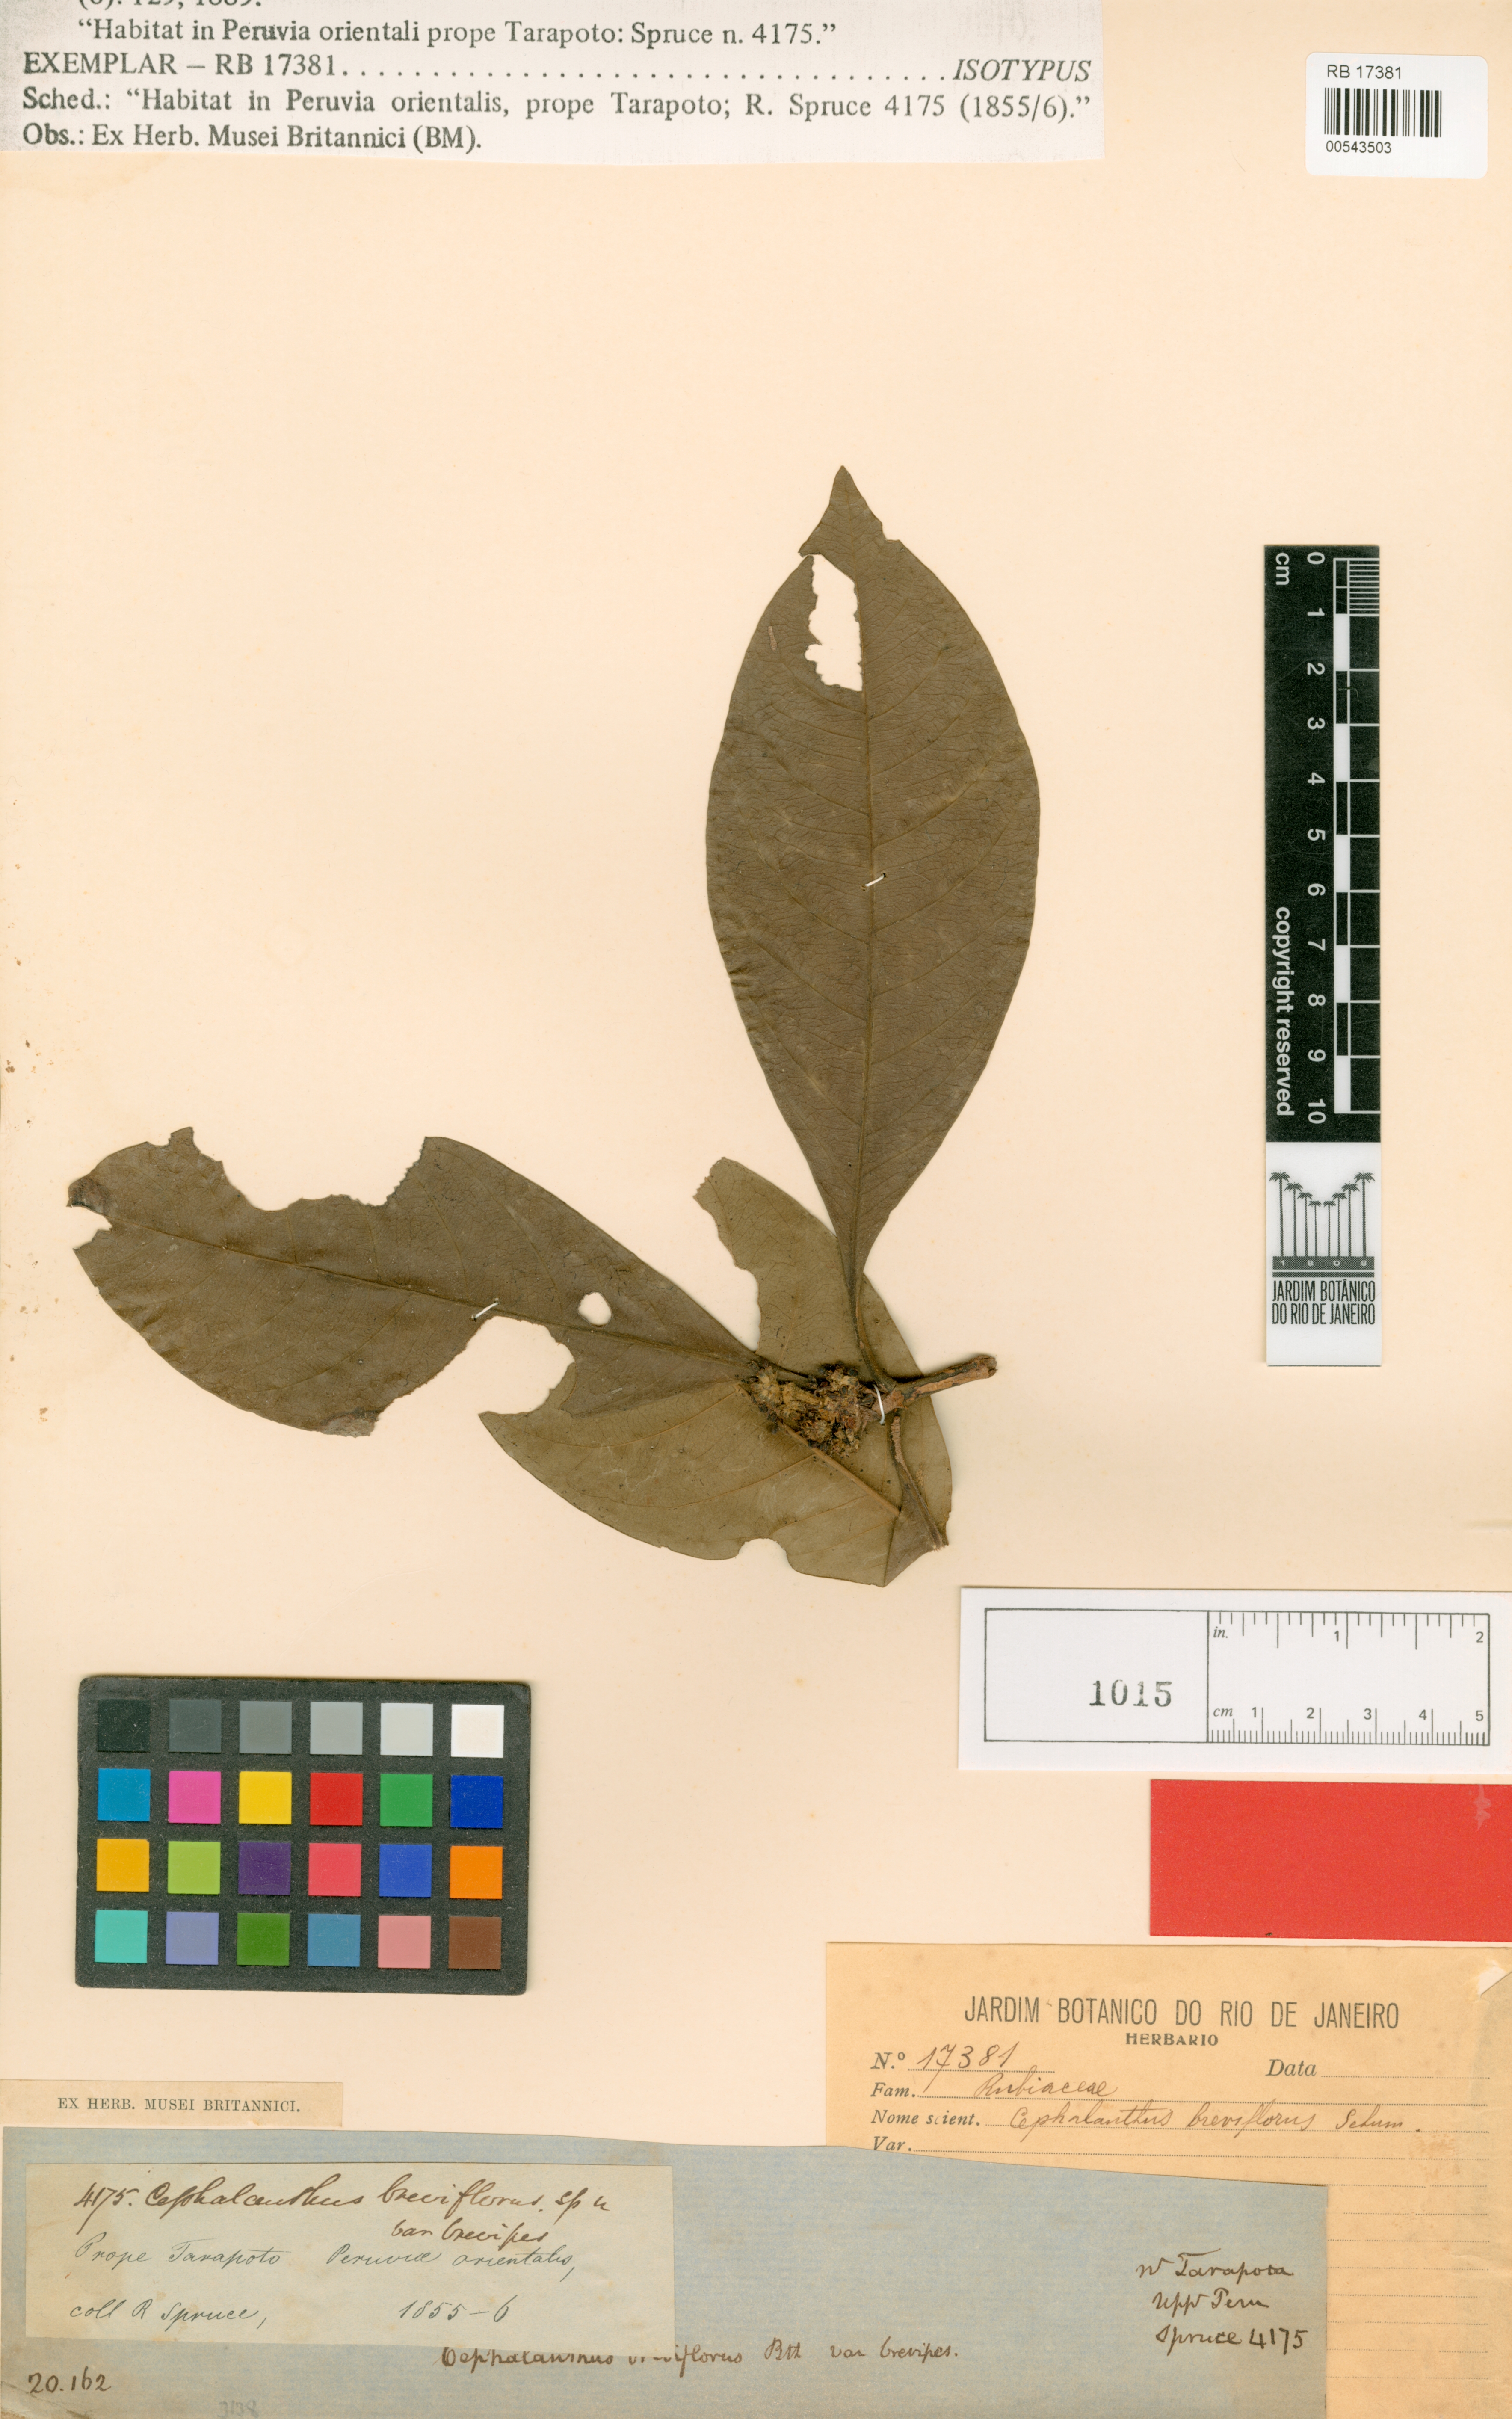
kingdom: Plantae
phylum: Tracheophyta
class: Magnoliopsida
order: Gentianales
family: Rubiaceae
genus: Ixora
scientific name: Ixora peruviana
